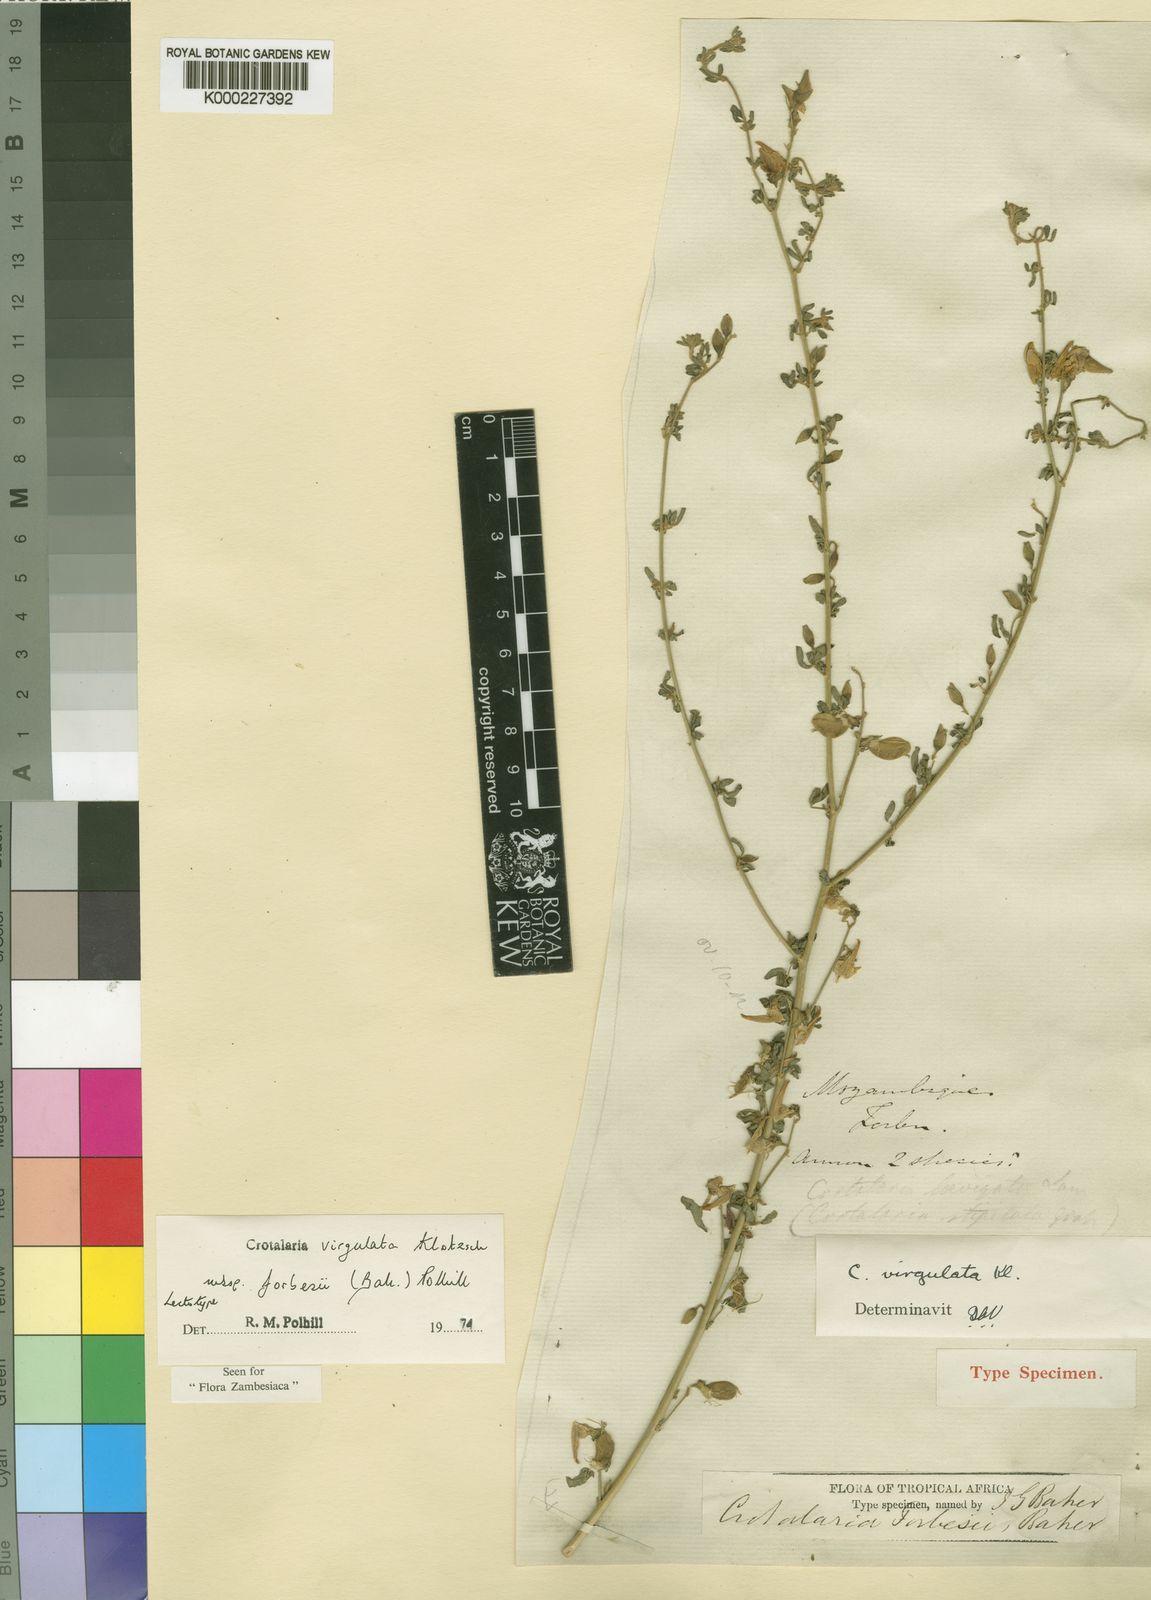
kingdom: Plantae
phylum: Tracheophyta
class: Magnoliopsida
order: Fabales
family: Fabaceae
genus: Crotalaria
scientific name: Crotalaria virgulata
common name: Thicket rattlebox
